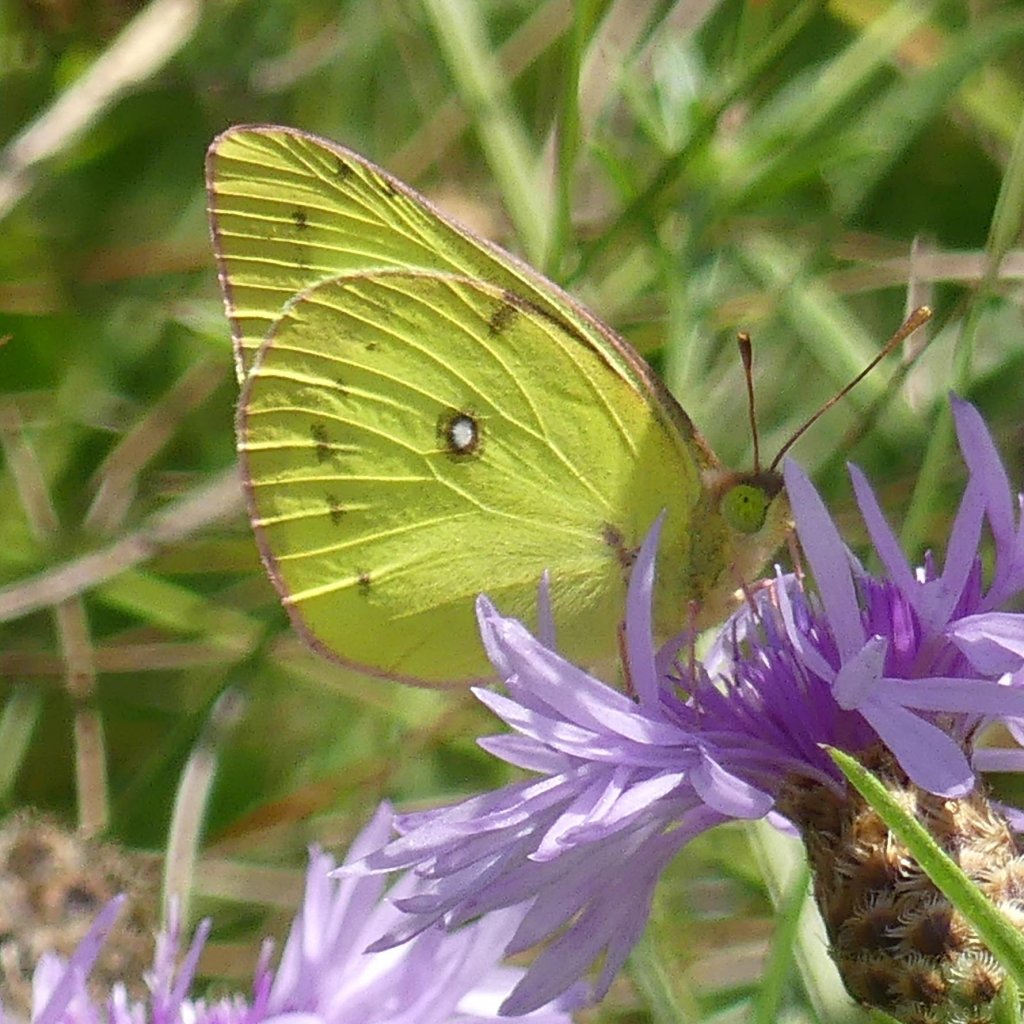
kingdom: Animalia
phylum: Arthropoda
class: Insecta
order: Lepidoptera
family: Pieridae
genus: Colias
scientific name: Colias philodice
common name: Clouded Sulphur
